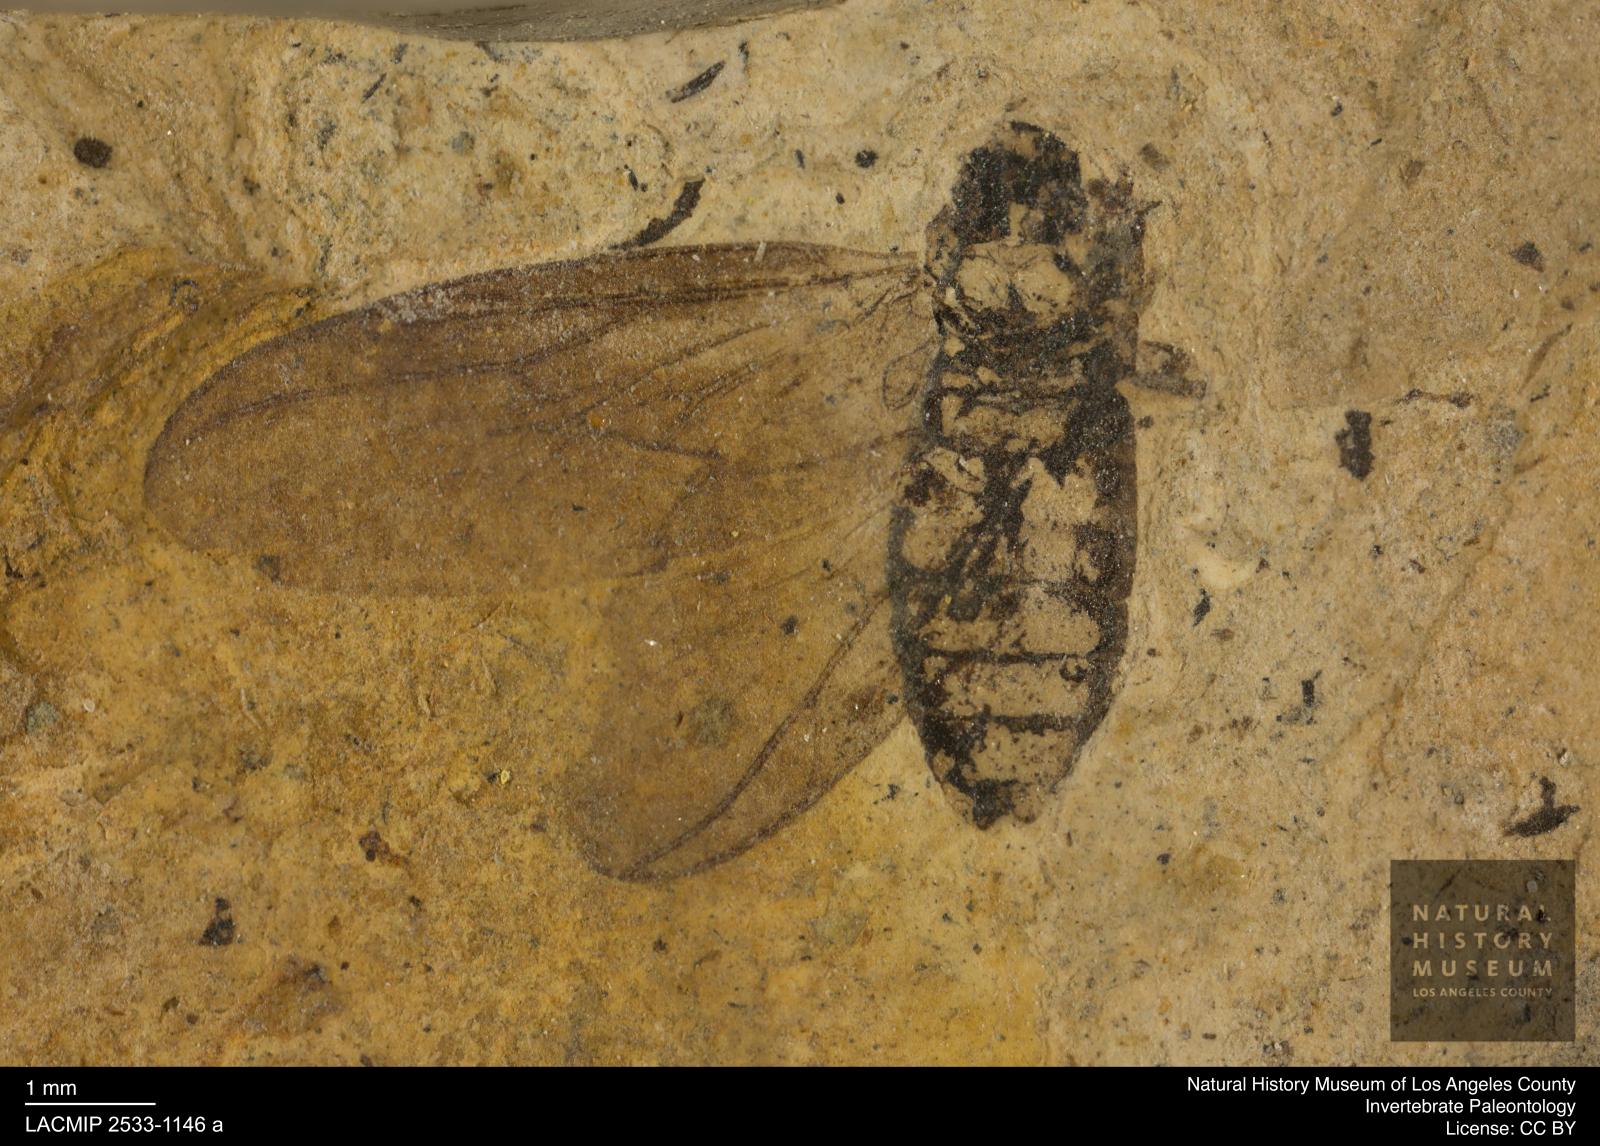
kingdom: Animalia
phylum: Arthropoda
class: Insecta
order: Diptera
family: Bibionidae
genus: Plecia
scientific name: Plecia stygia
